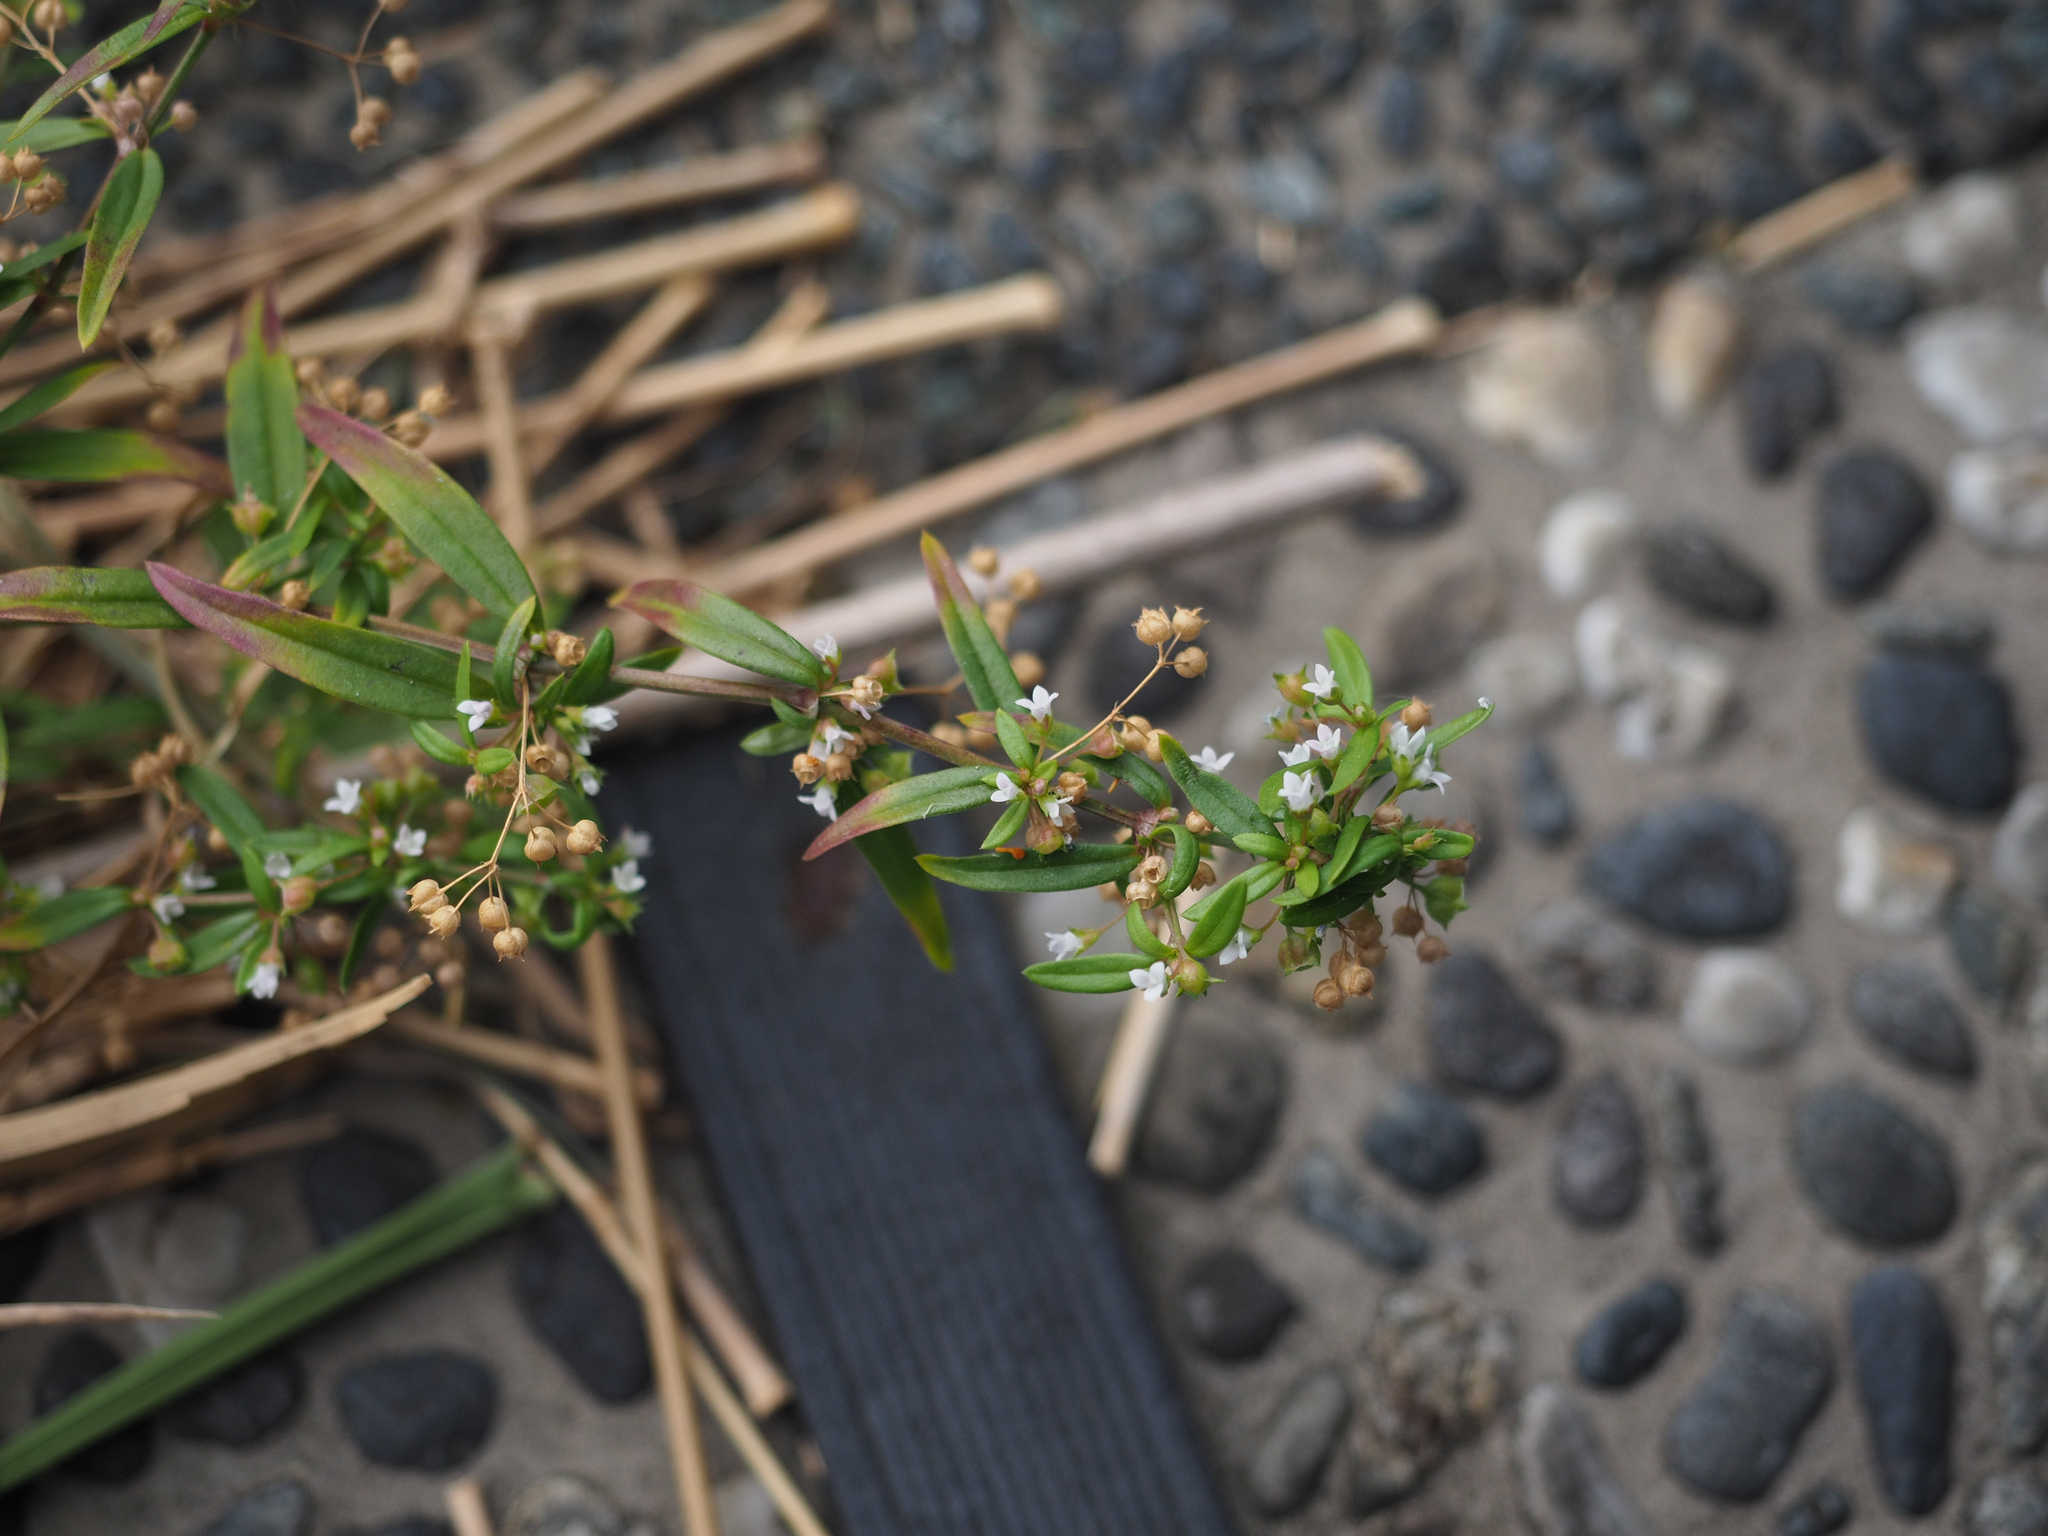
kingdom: Plantae
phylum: Tracheophyta
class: Magnoliopsida
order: Gentianales
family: Rubiaceae
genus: Oldenlandia
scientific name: Oldenlandia corymbosa
